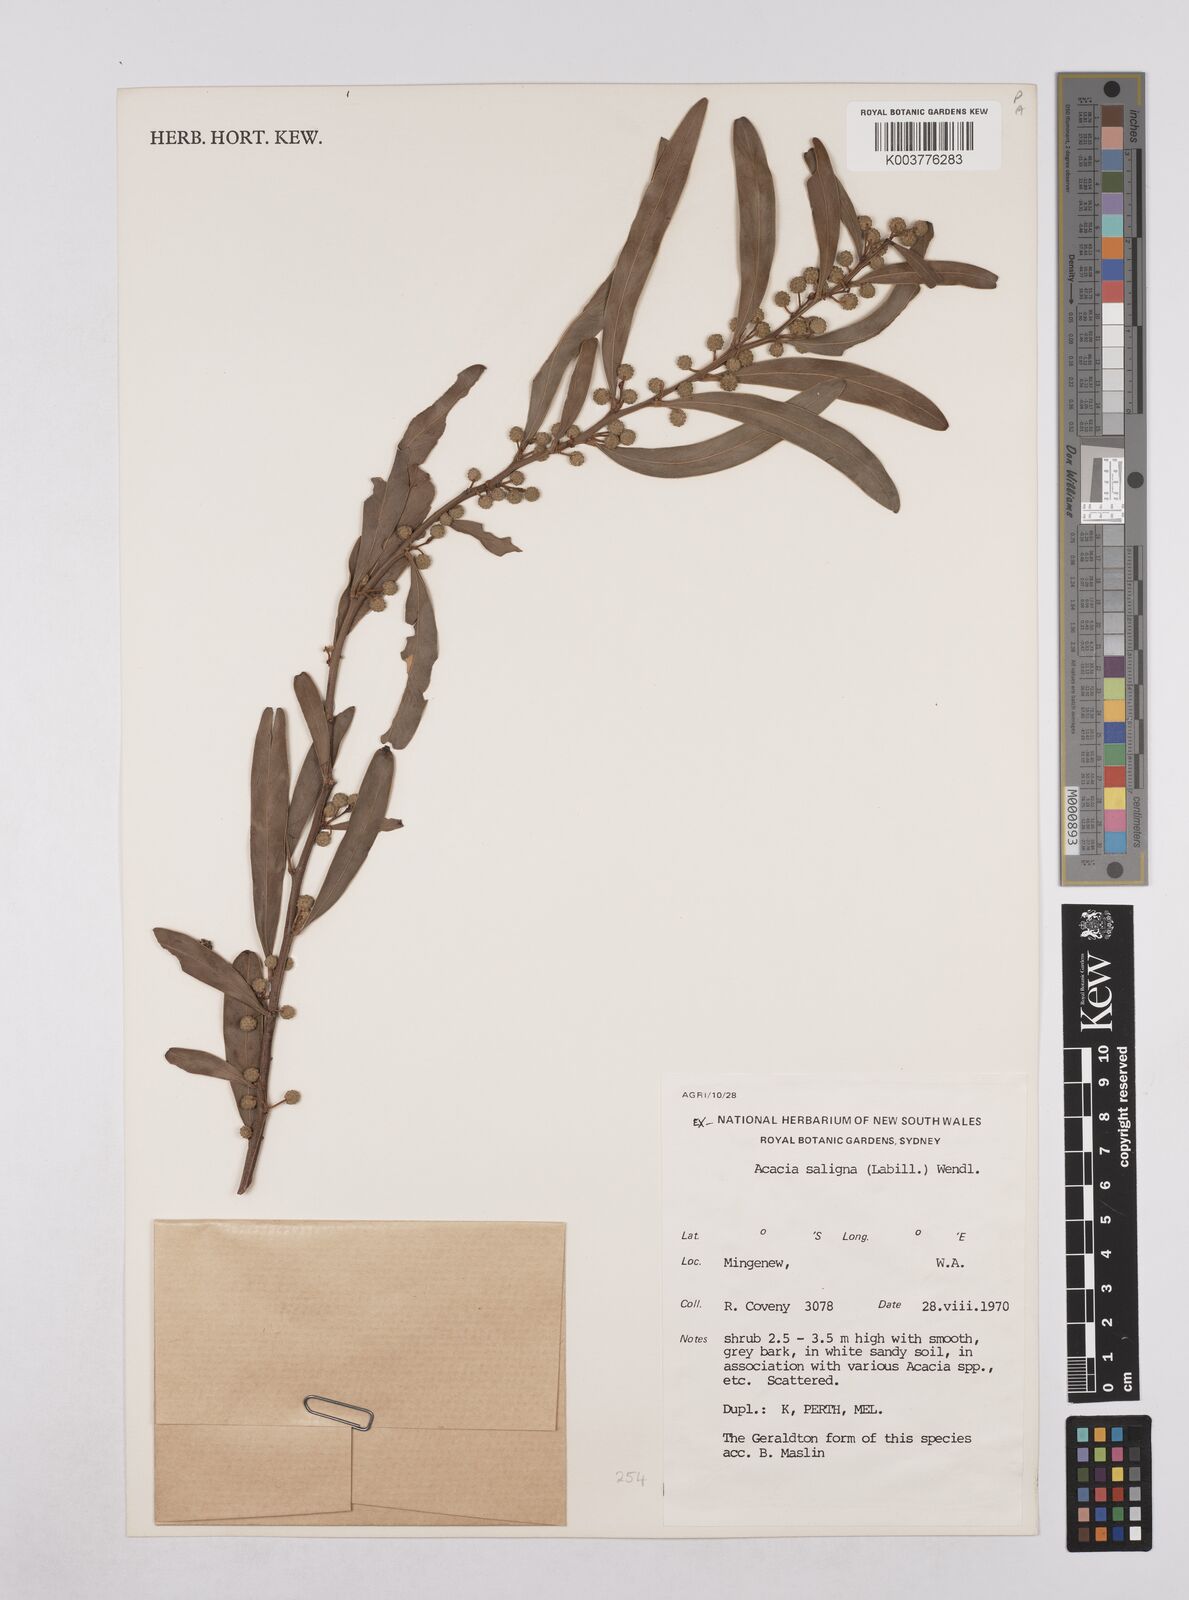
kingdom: Plantae
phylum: Tracheophyta
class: Magnoliopsida
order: Fabales
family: Fabaceae
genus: Acacia
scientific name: Acacia saligna
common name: Orange wattle
